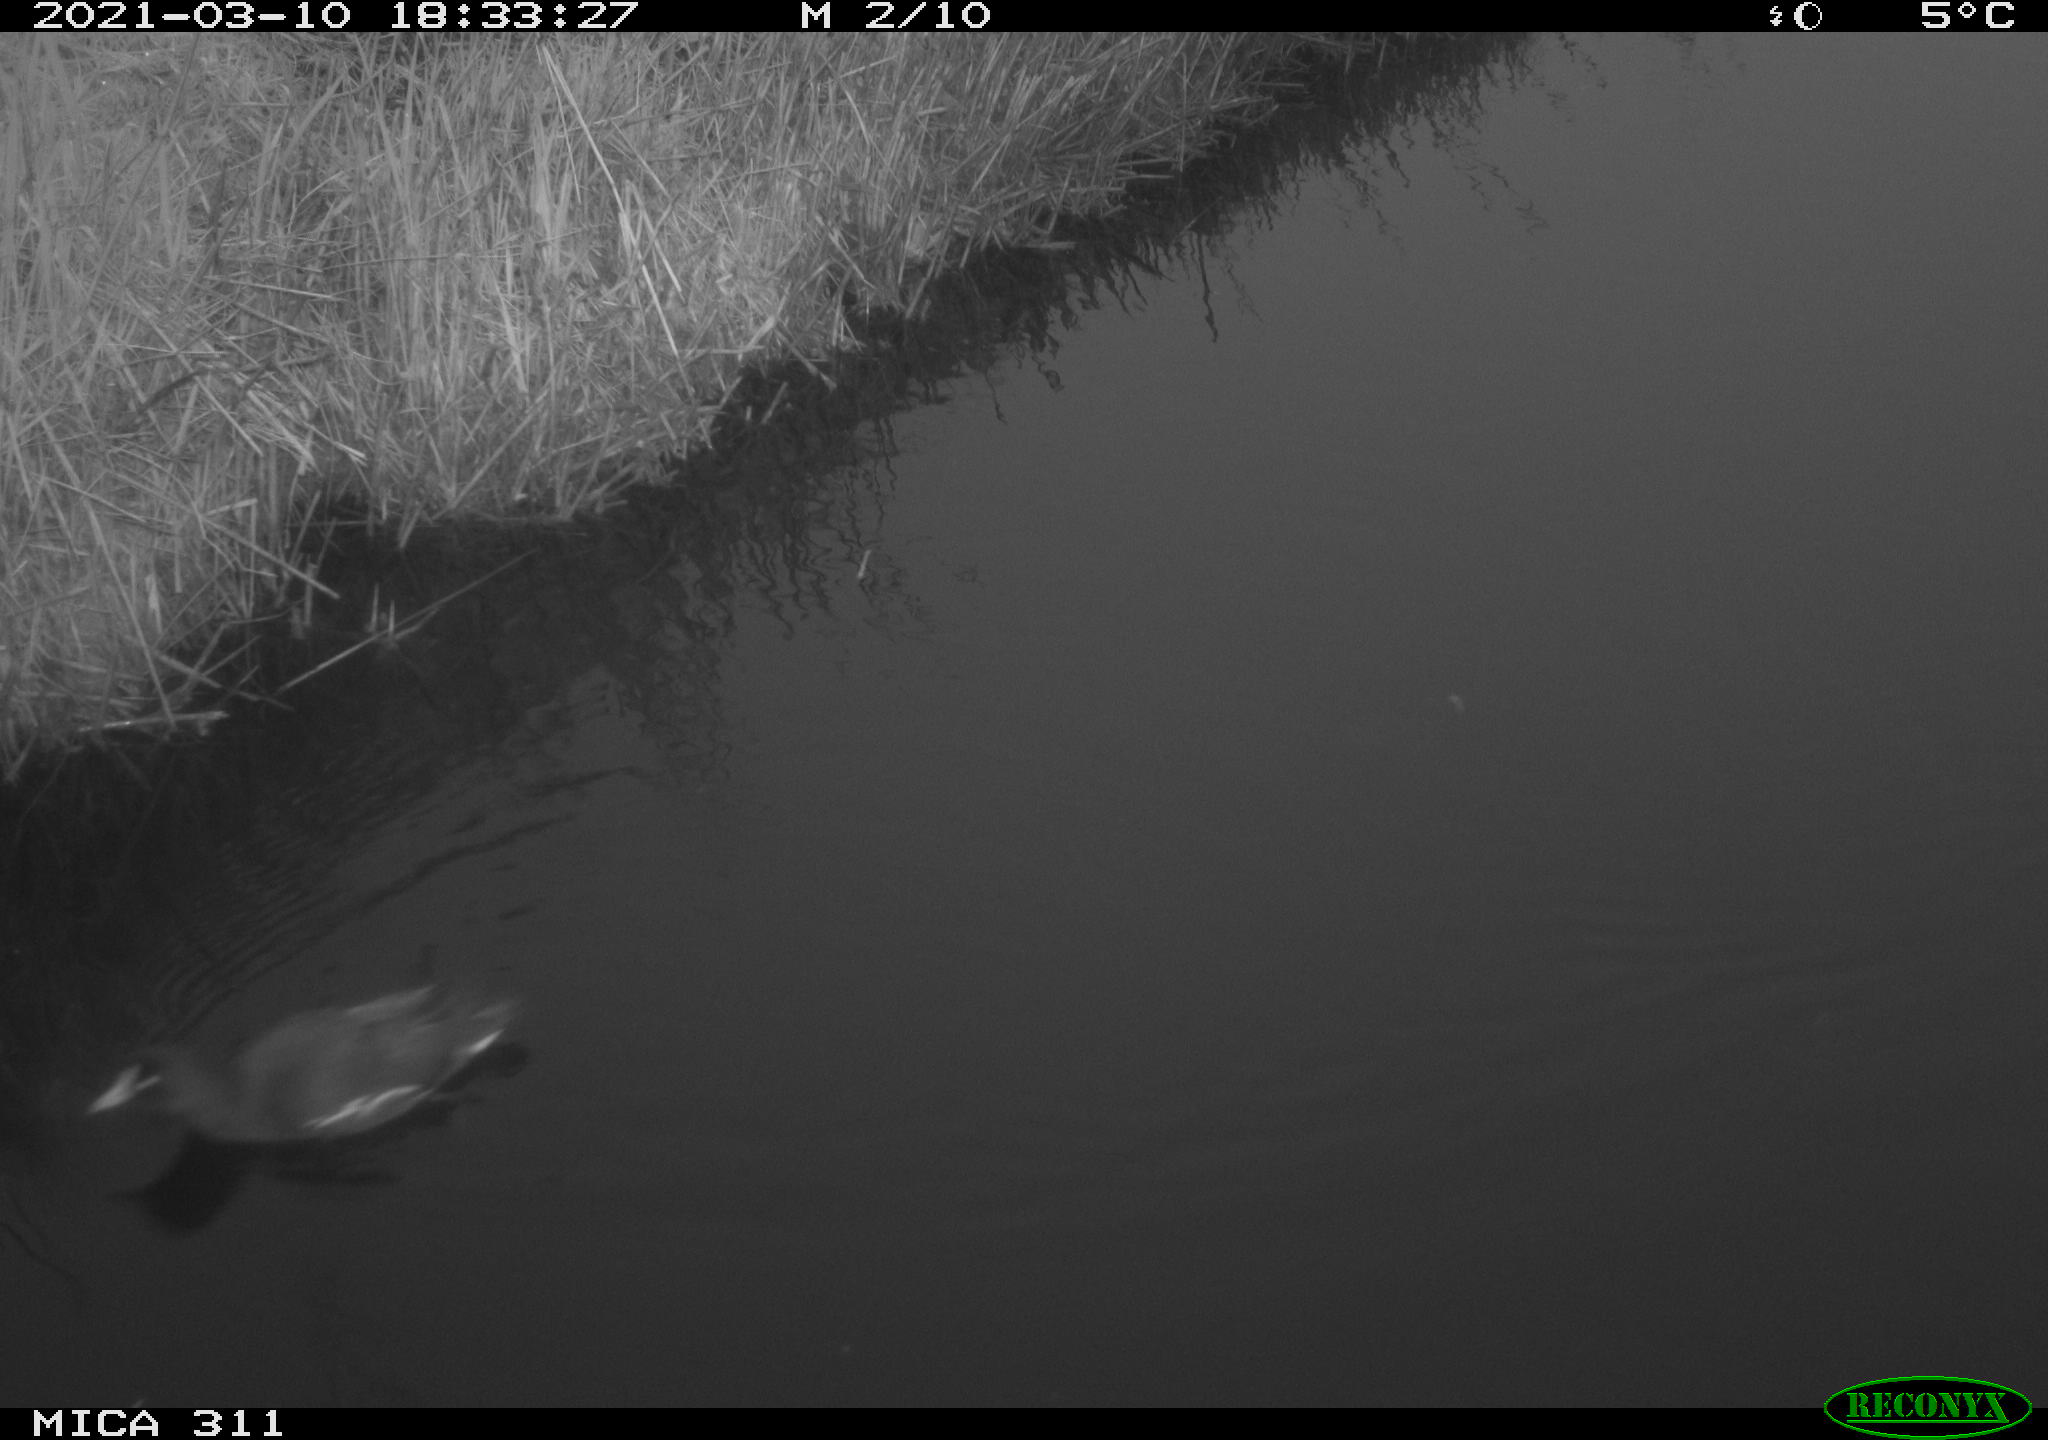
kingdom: Animalia
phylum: Chordata
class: Aves
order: Gruiformes
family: Rallidae
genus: Gallinula
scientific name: Gallinula chloropus
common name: Common moorhen
